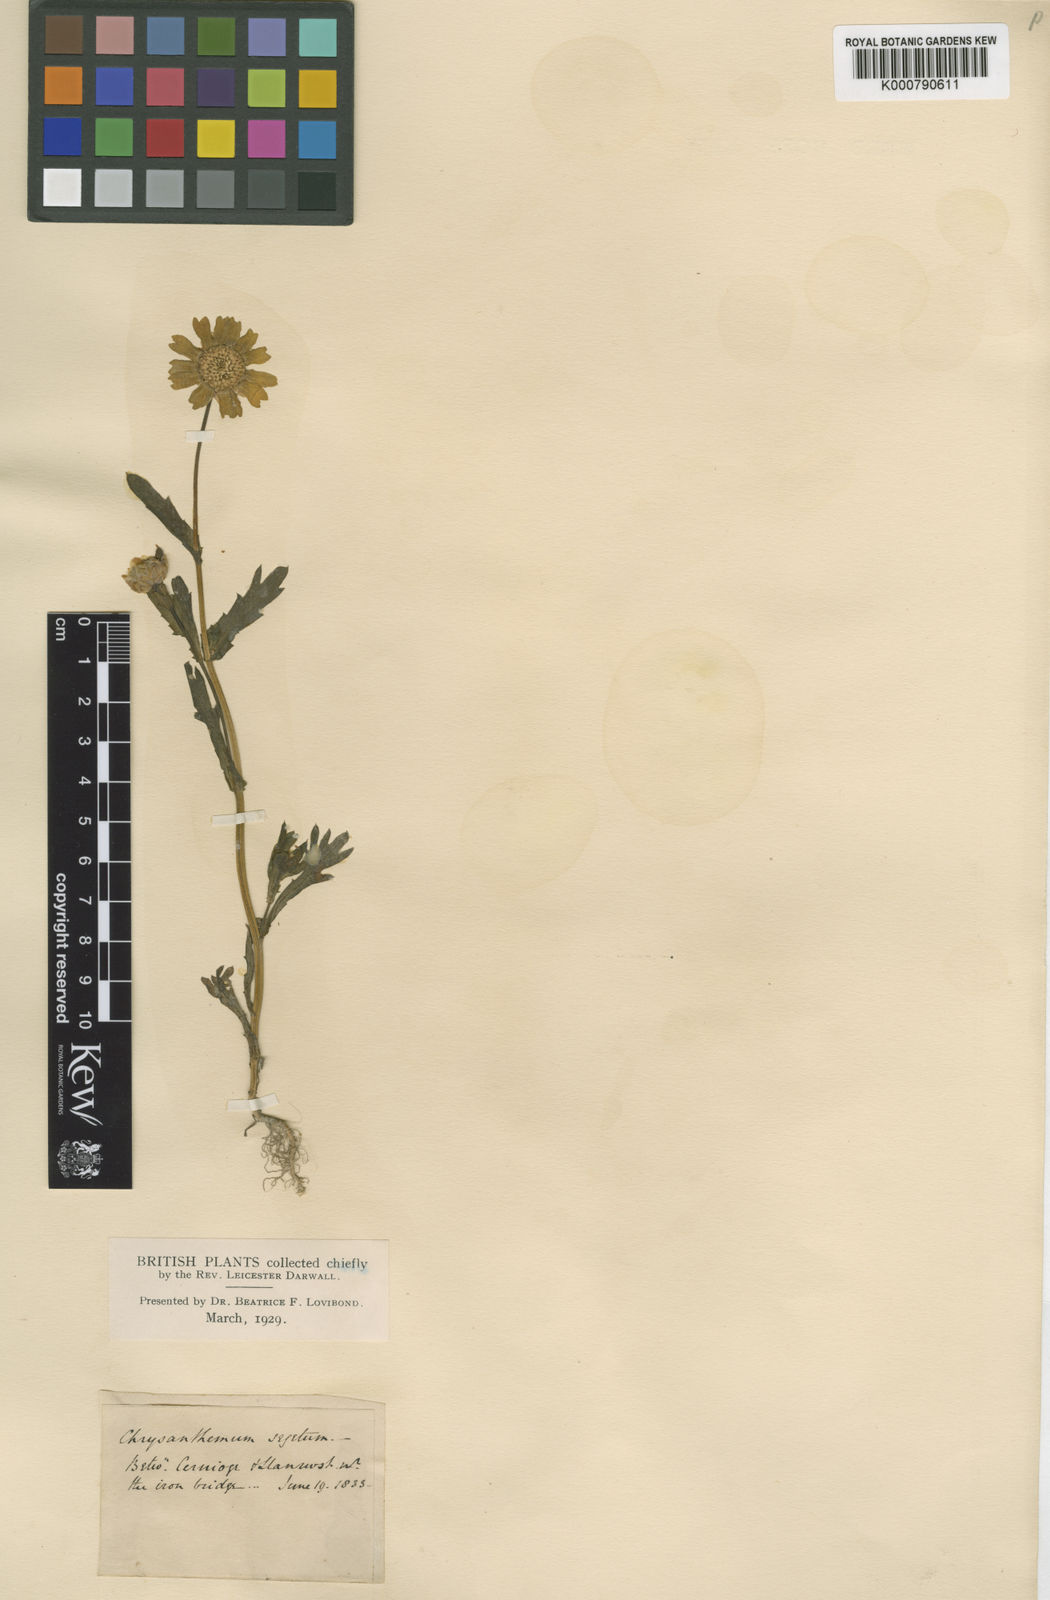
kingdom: Plantae
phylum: Tracheophyta
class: Magnoliopsida
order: Asterales
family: Asteraceae
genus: Glebionis
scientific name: Glebionis segetum
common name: Corndaisy
